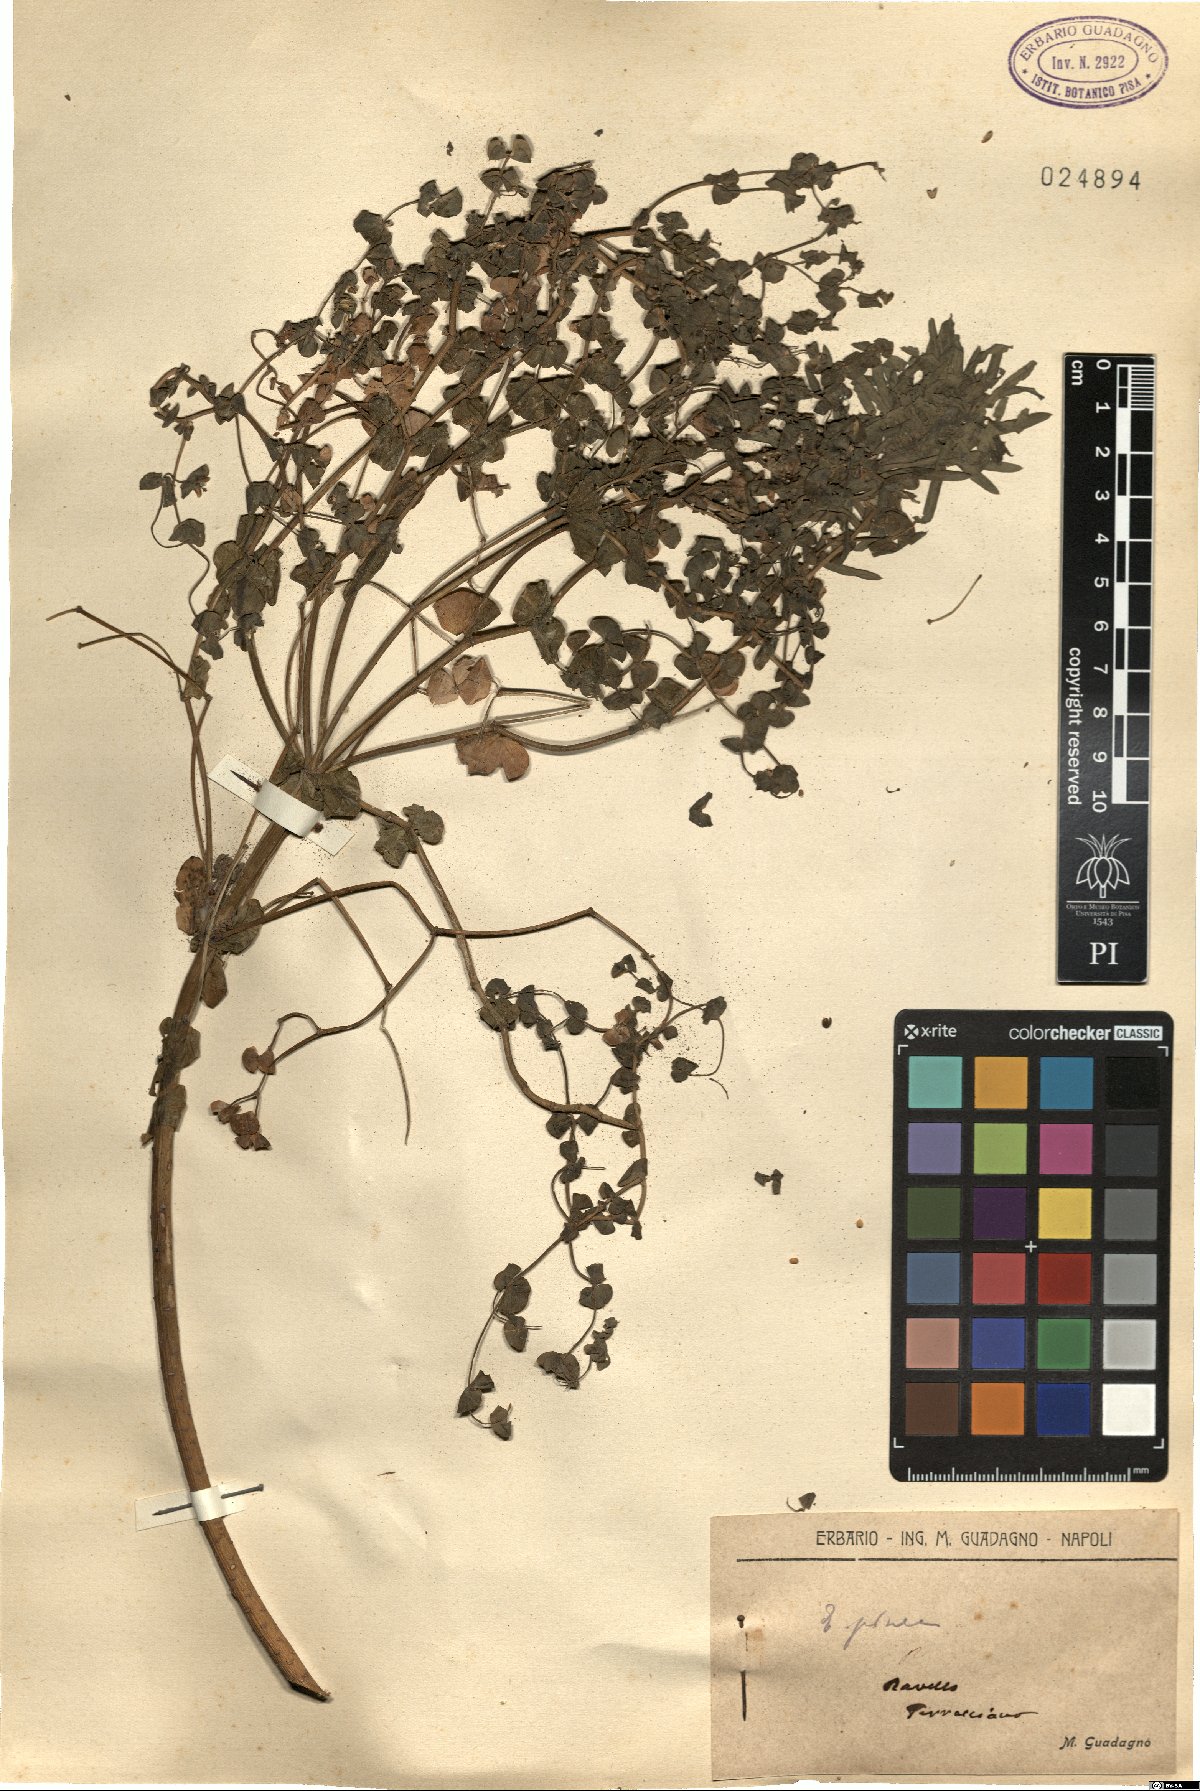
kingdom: Plantae
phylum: Tracheophyta
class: Magnoliopsida
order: Malpighiales
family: Euphorbiaceae
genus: Euphorbia
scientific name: Euphorbia segetalis
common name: Corn spurge
